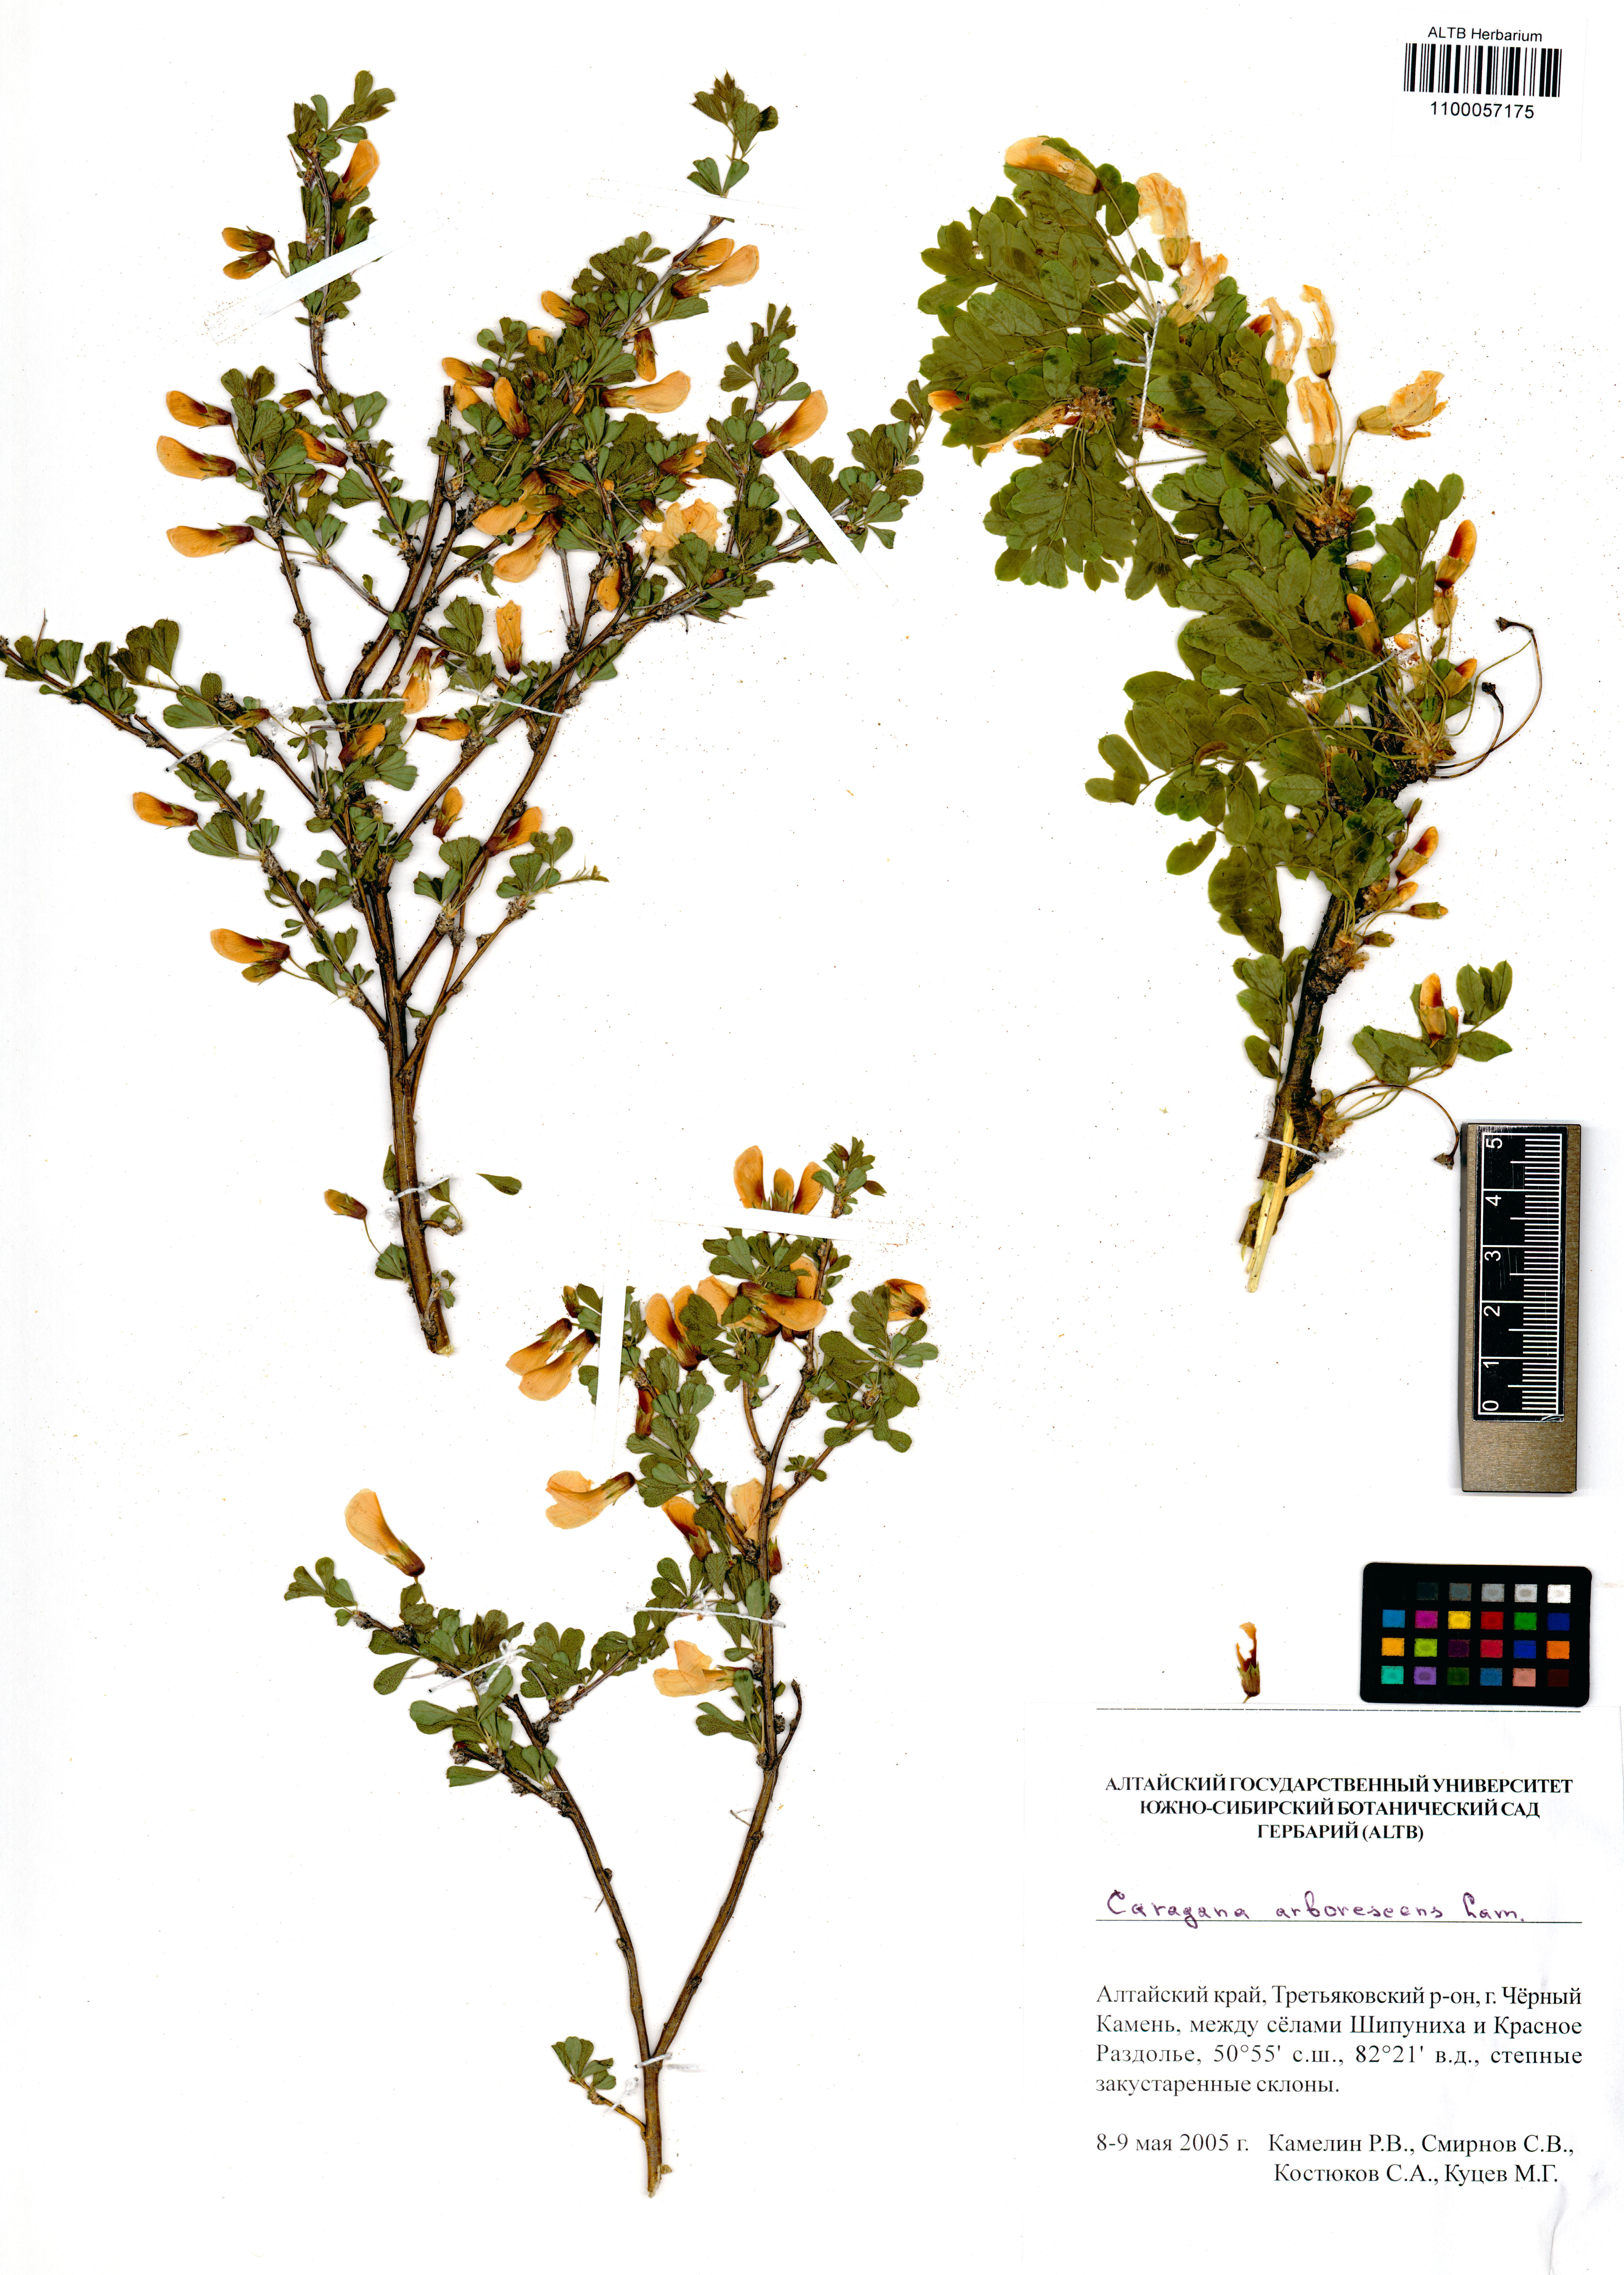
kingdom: Plantae
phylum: Tracheophyta
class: Magnoliopsida
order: Fabales
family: Fabaceae
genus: Caragana
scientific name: Caragana arborescens
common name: Siberian peashrub
